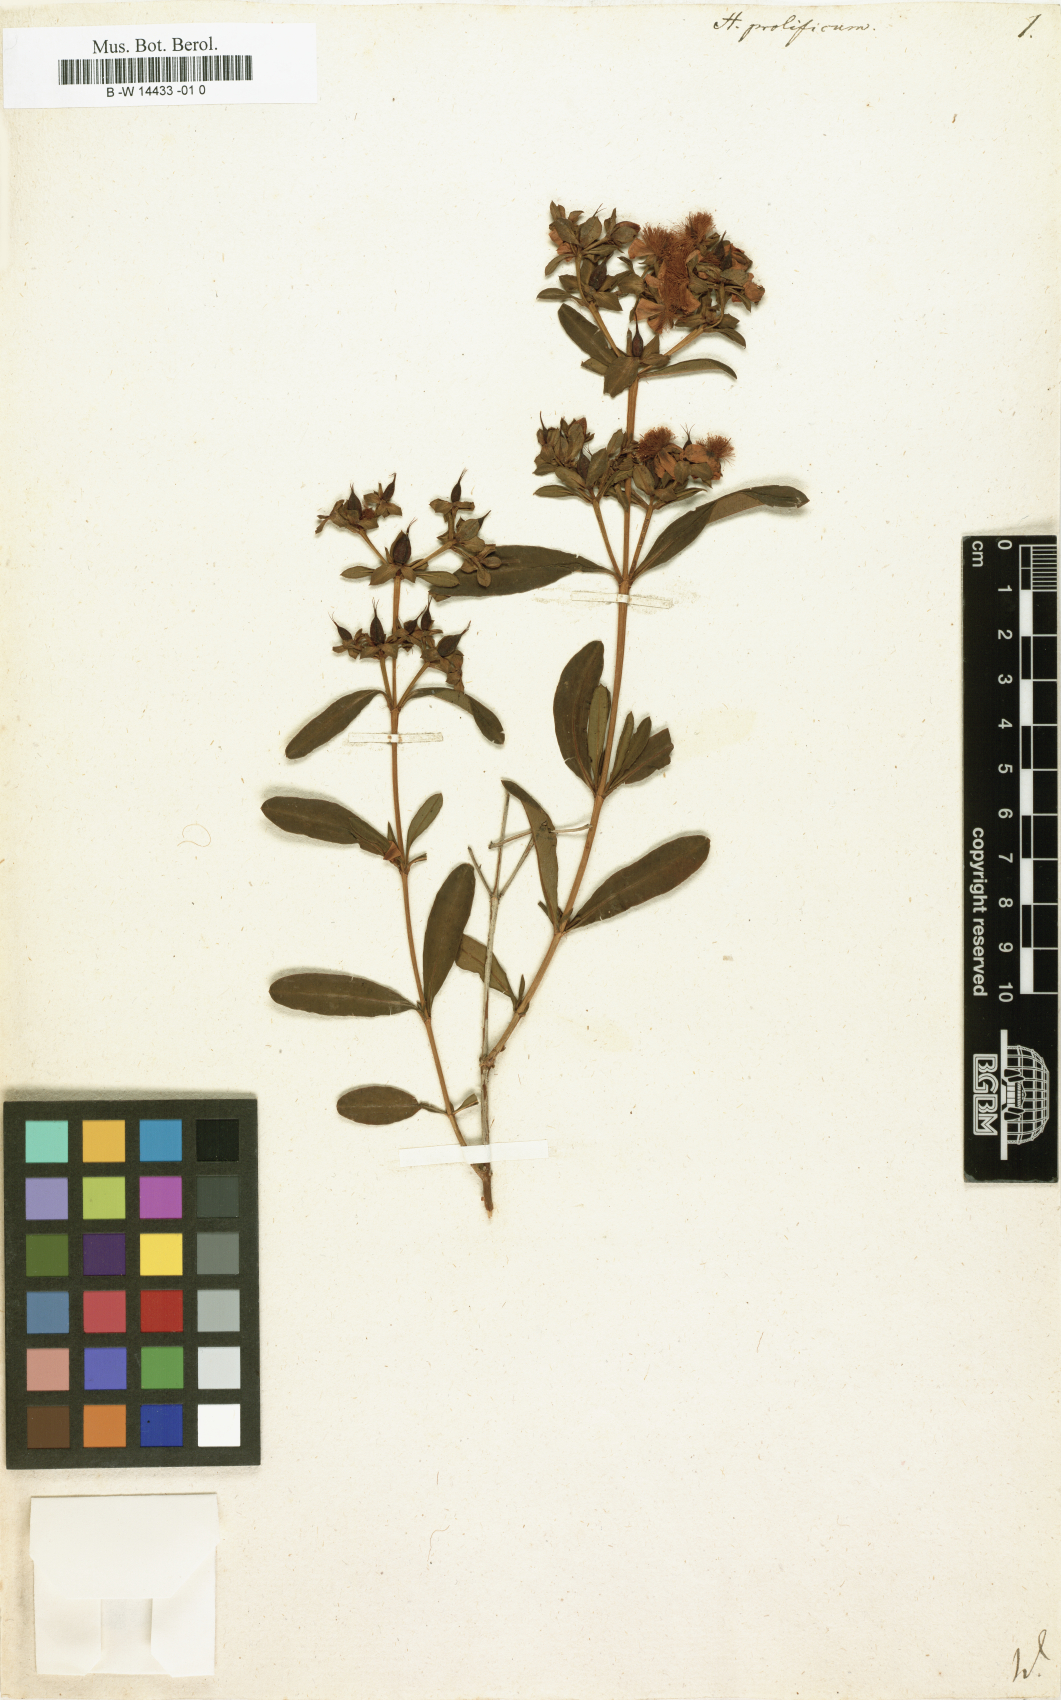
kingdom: Plantae
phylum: Tracheophyta
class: Magnoliopsida
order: Malpighiales
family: Hypericaceae
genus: Hypericum
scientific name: Hypericum prolificum
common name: Shrubby st. john's-wort
